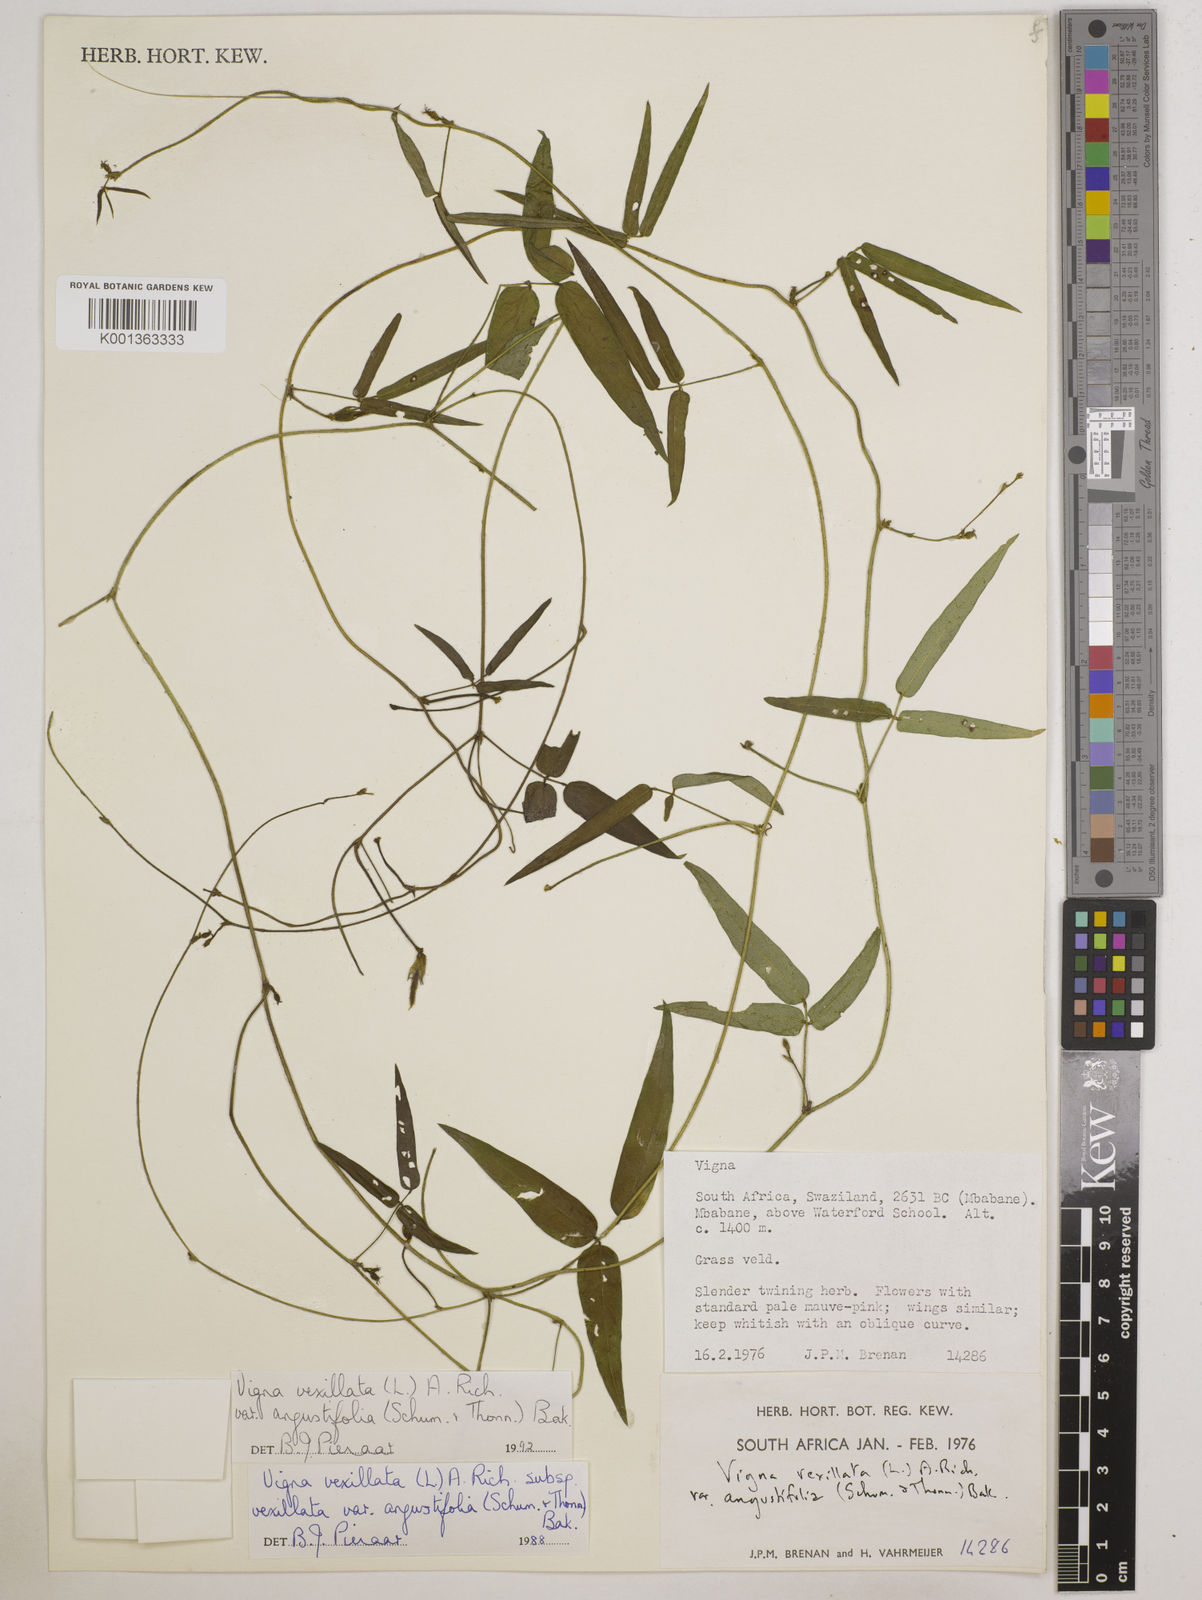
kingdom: Plantae
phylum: Tracheophyta
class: Magnoliopsida
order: Fabales
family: Fabaceae
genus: Vigna
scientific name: Vigna
